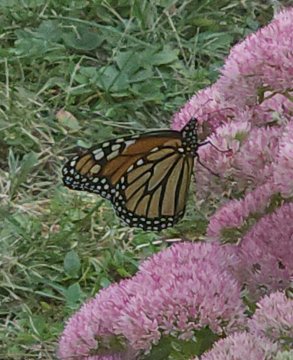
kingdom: Animalia
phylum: Arthropoda
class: Insecta
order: Lepidoptera
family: Nymphalidae
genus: Danaus
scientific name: Danaus plexippus
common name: Monarch
